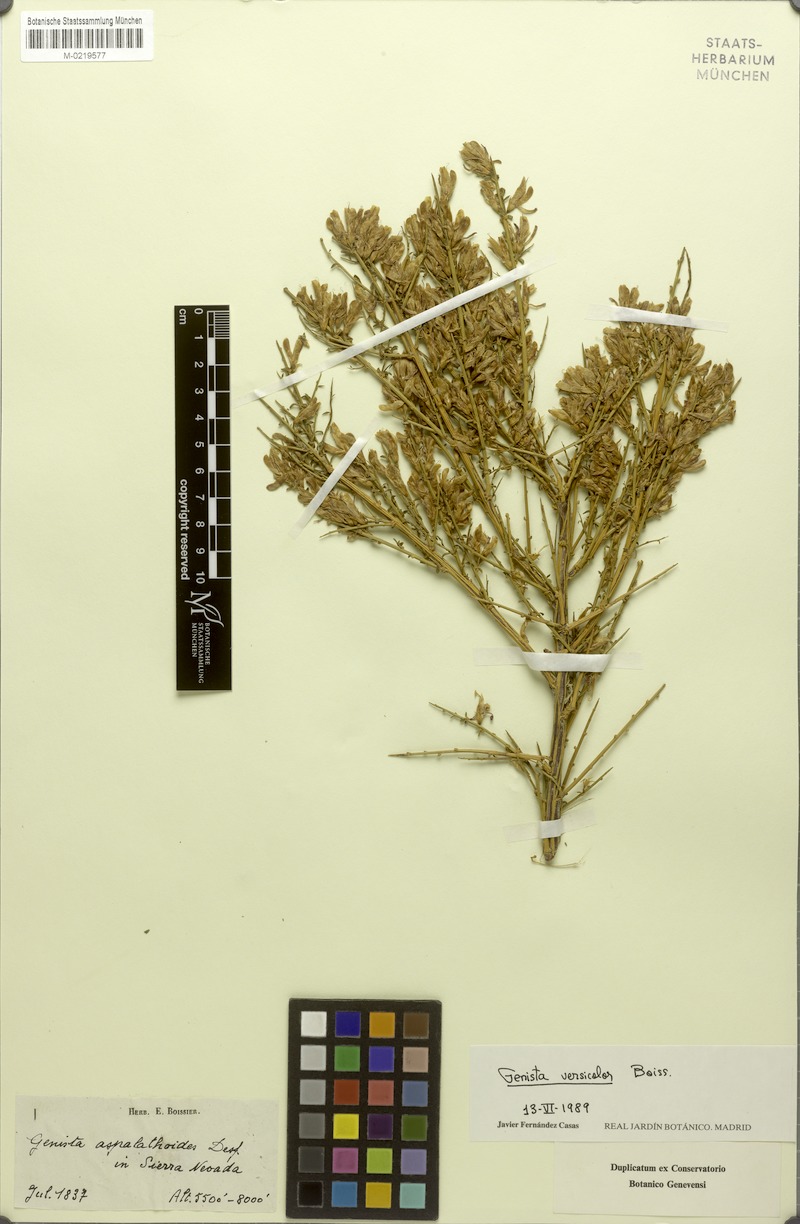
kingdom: Plantae
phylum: Tracheophyta
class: Magnoliopsida
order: Fabales
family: Fabaceae
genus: Genista
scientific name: Genista versicolor
